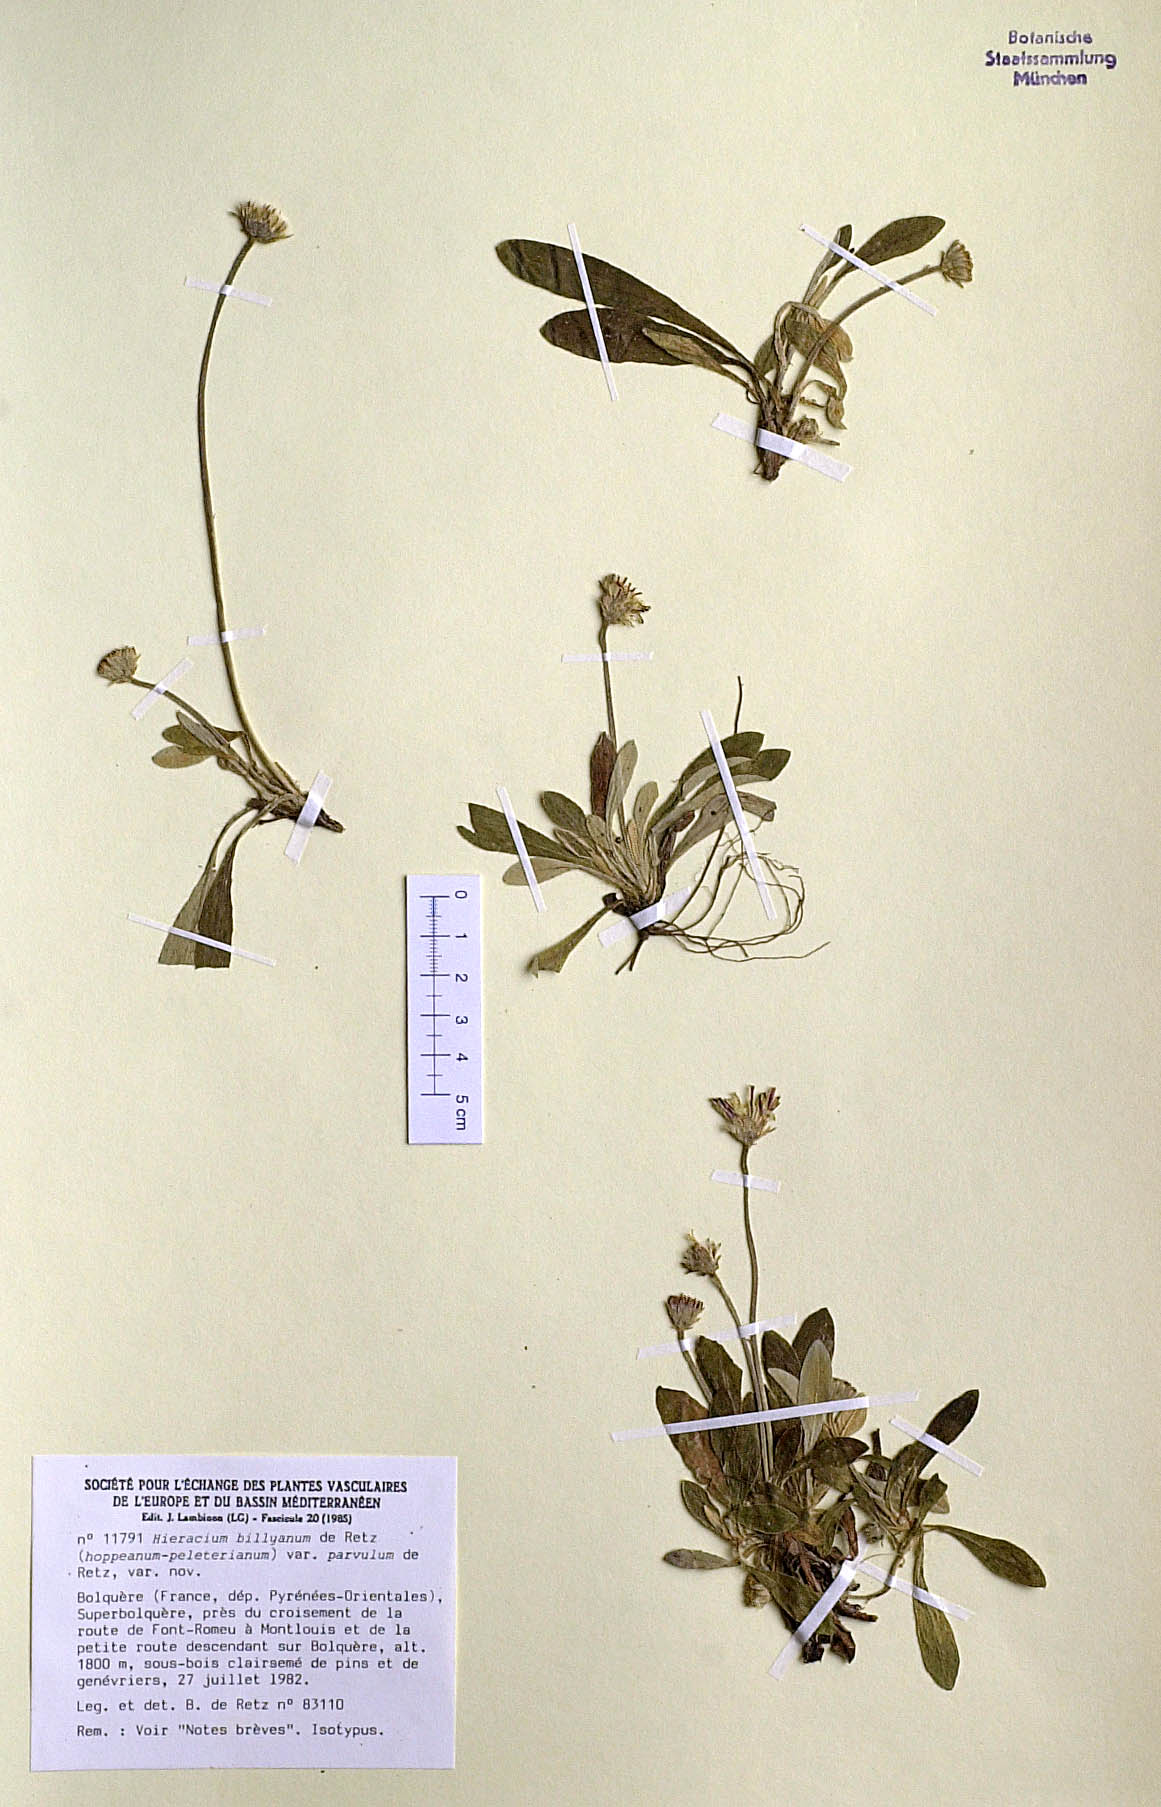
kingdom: Plantae
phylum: Tracheophyta
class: Magnoliopsida
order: Asterales
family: Asteraceae
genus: Pilosella
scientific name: Pilosella billyana
